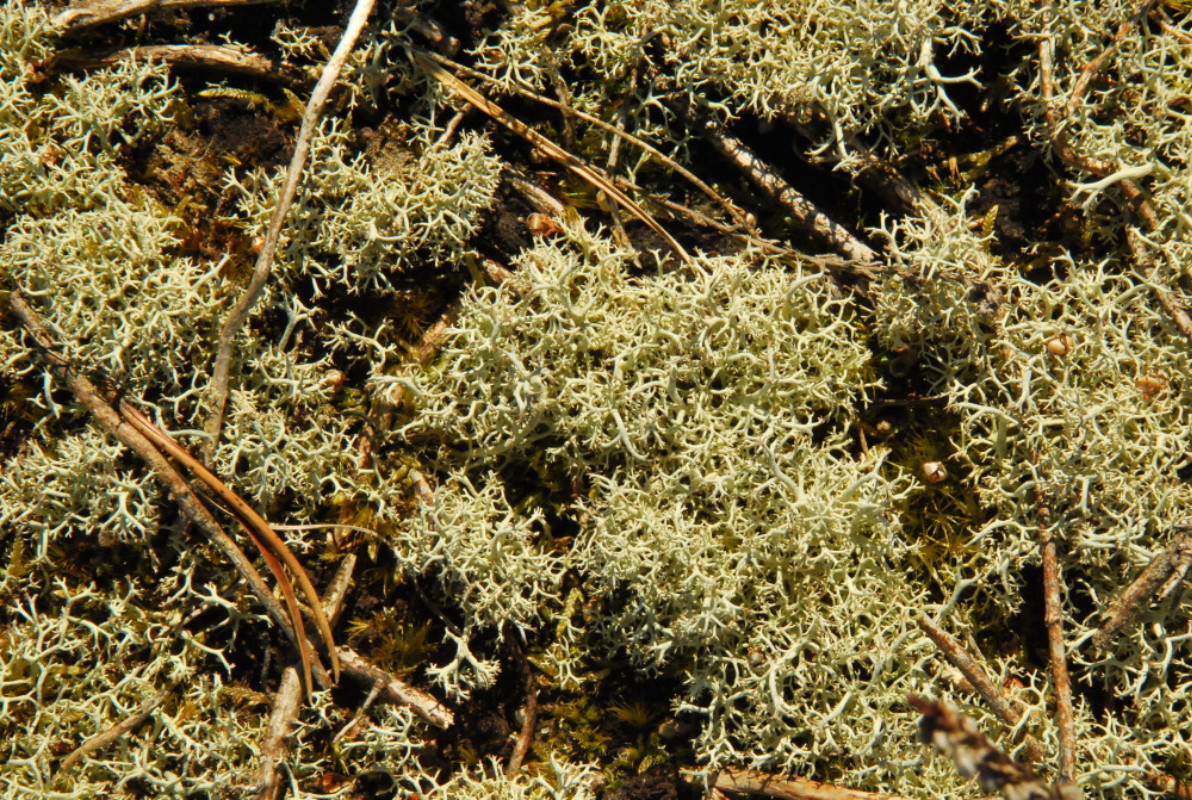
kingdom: Fungi
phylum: Ascomycota
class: Lecanoromycetes
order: Lecanorales
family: Cladoniaceae
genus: Cladonia
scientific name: Cladonia portentosa
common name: hede-rensdyrlav
